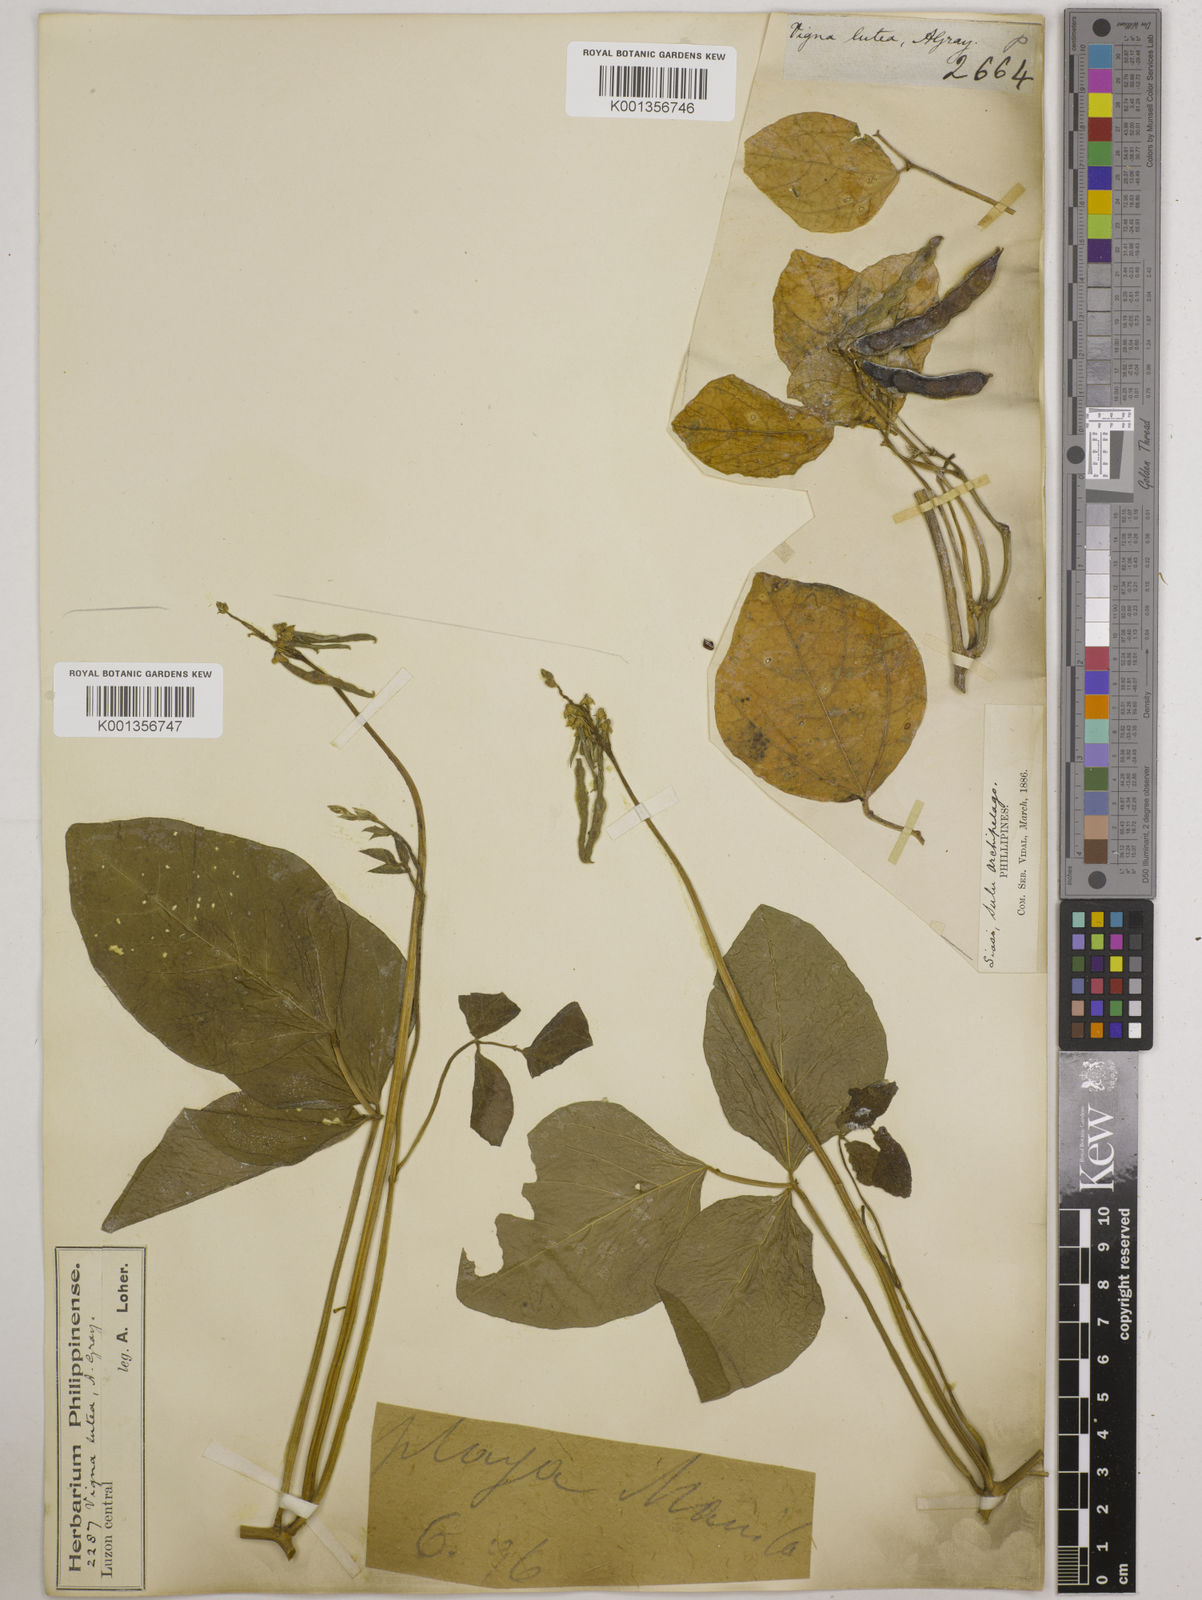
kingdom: Plantae
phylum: Tracheophyta
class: Magnoliopsida
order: Fabales
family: Fabaceae
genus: Vigna
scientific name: Vigna marina
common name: Dune-bean
